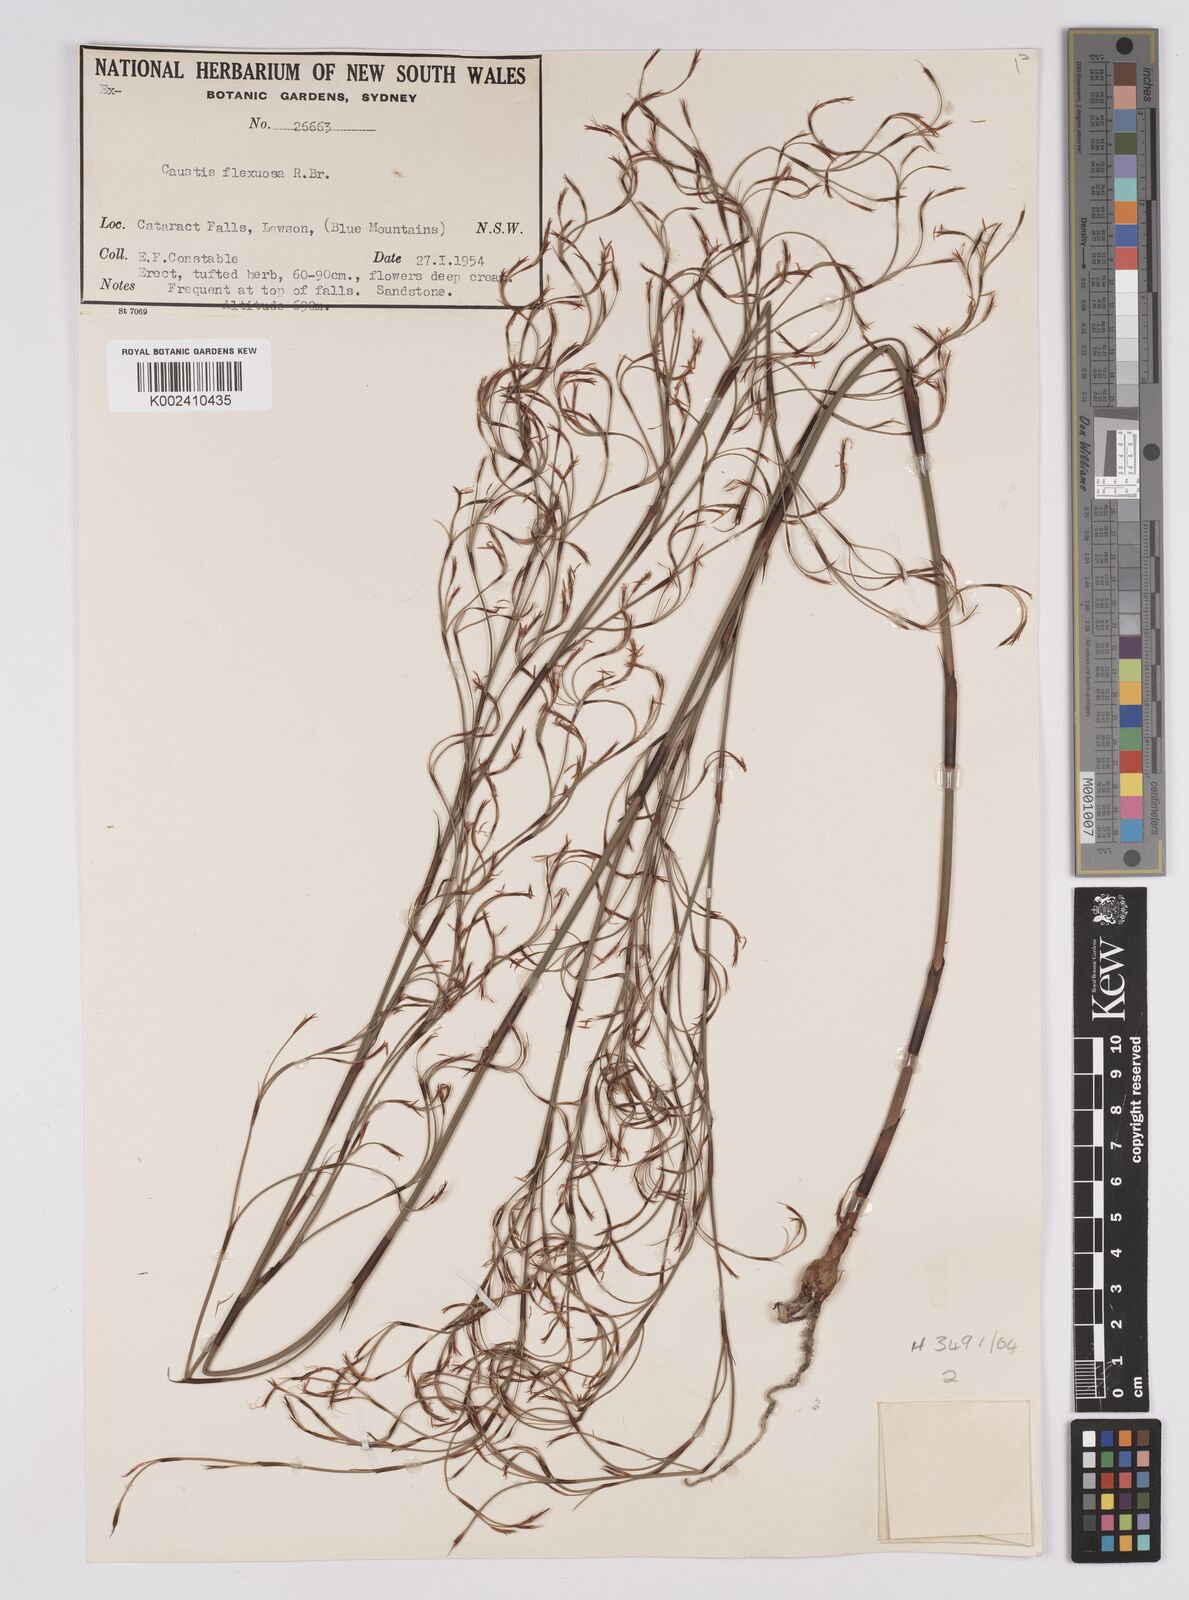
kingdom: Plantae
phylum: Tracheophyta
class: Liliopsida
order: Poales
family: Cyperaceae
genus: Caustis
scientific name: Caustis flexuosa
